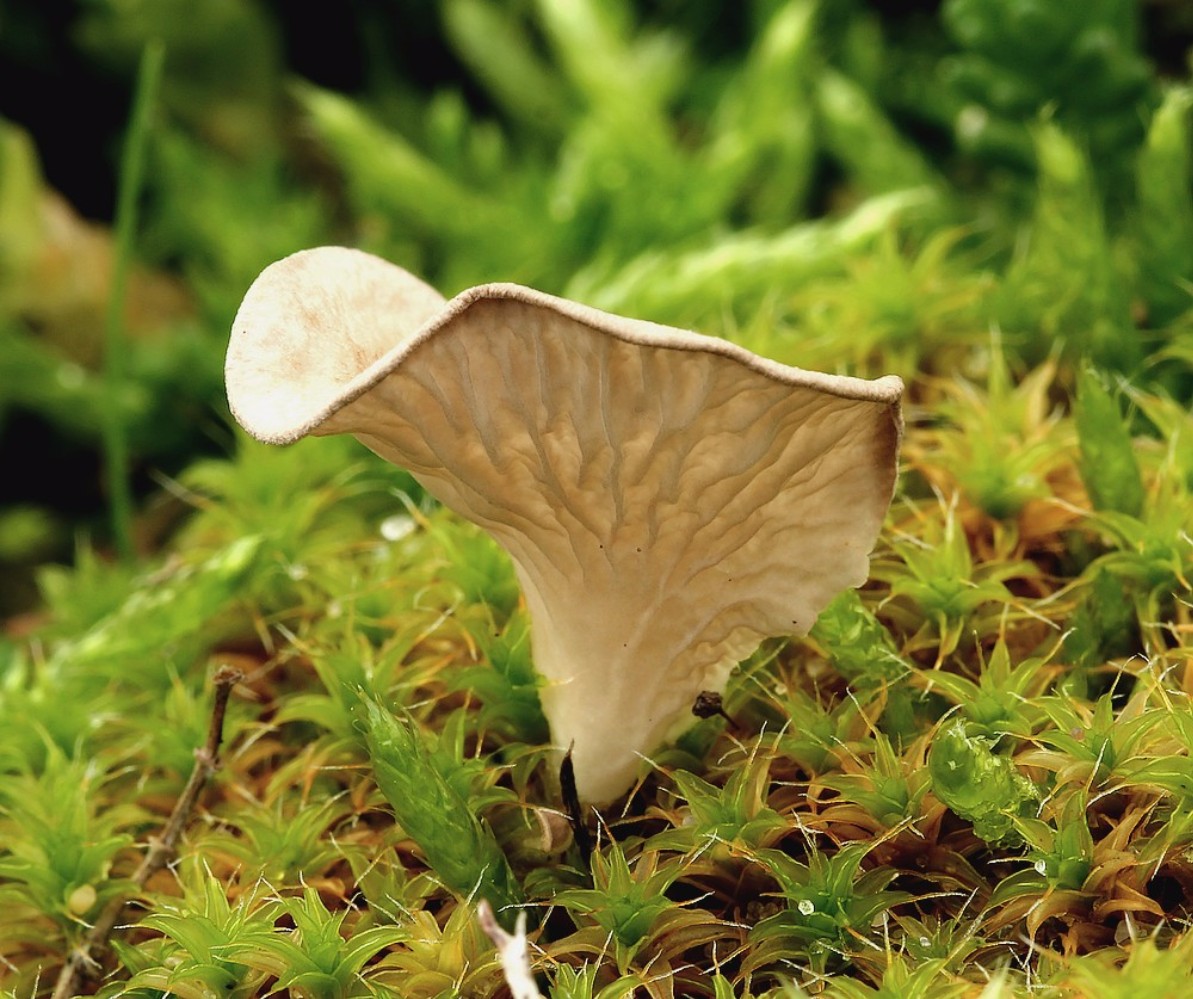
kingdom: Fungi
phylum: Basidiomycota
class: Agaricomycetes
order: Agaricales
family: Hygrophoraceae
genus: Arrhenia
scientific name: Arrhenia spathulata
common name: skæv fontænehat
